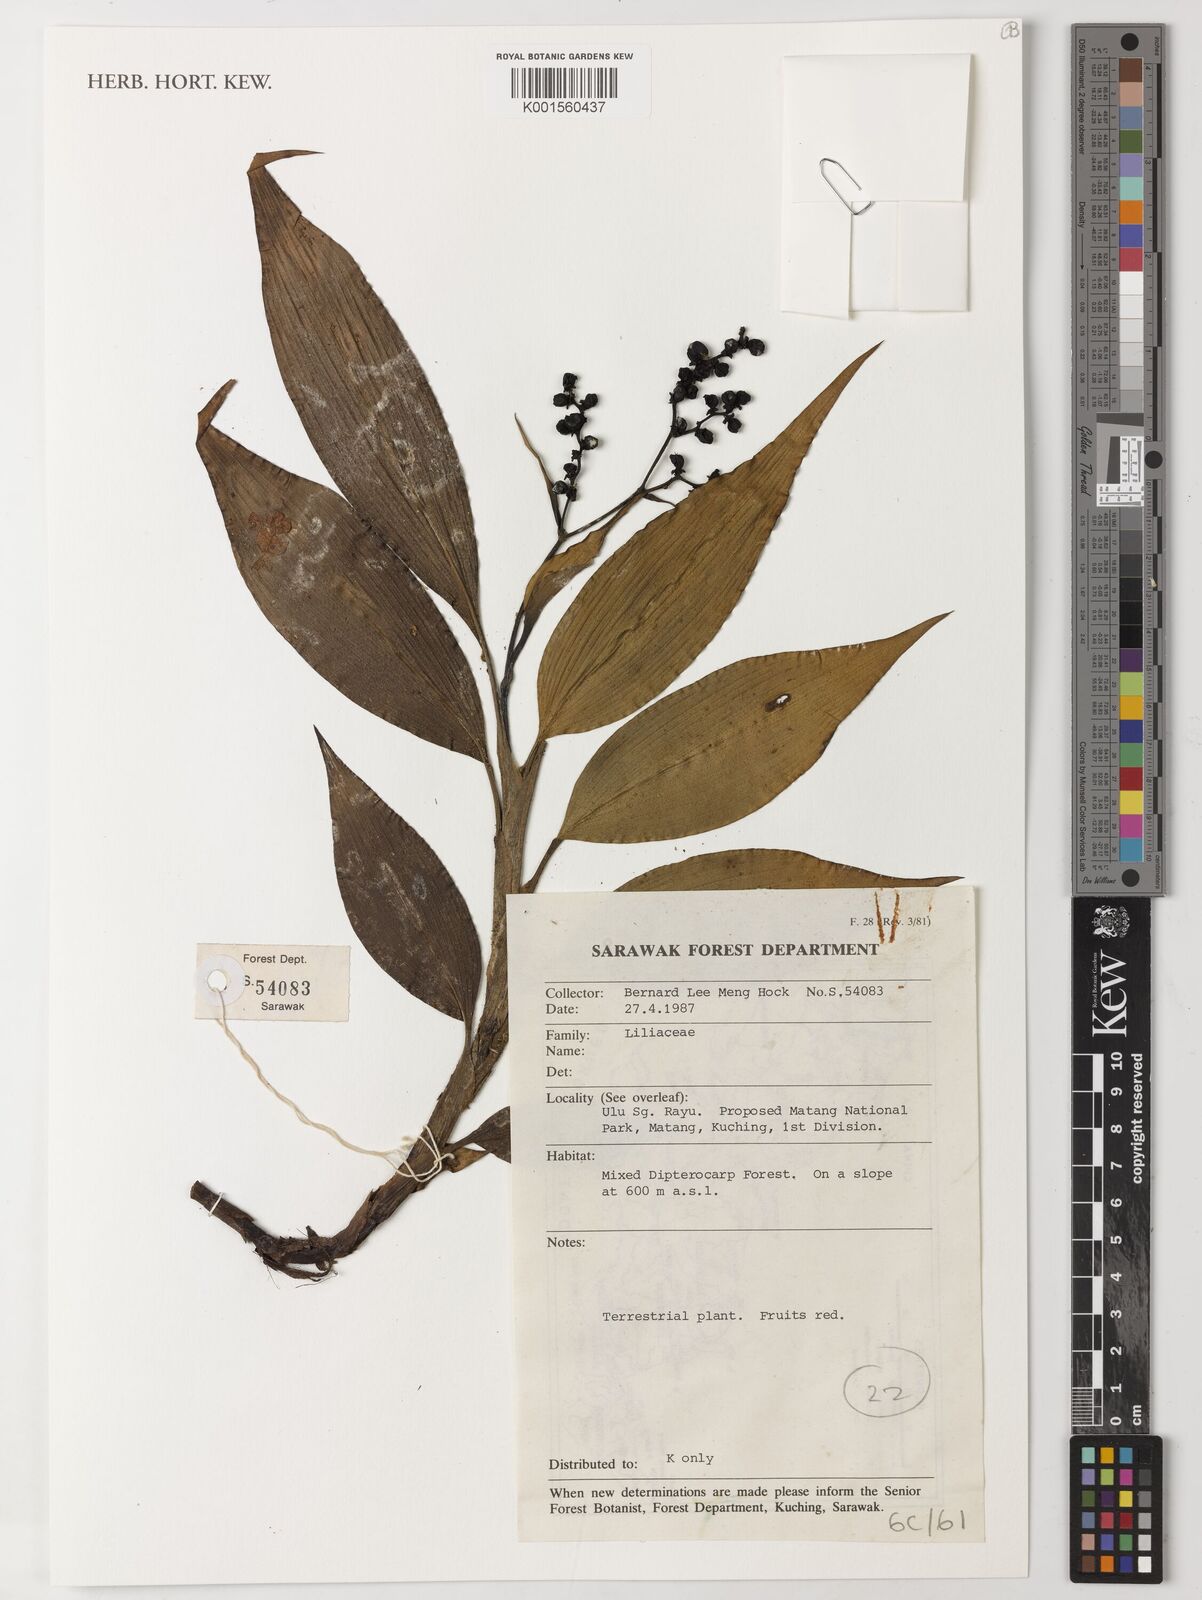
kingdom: Plantae
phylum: Tracheophyta
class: Liliopsida
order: Liliales
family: Liliaceae
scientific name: Liliaceae
